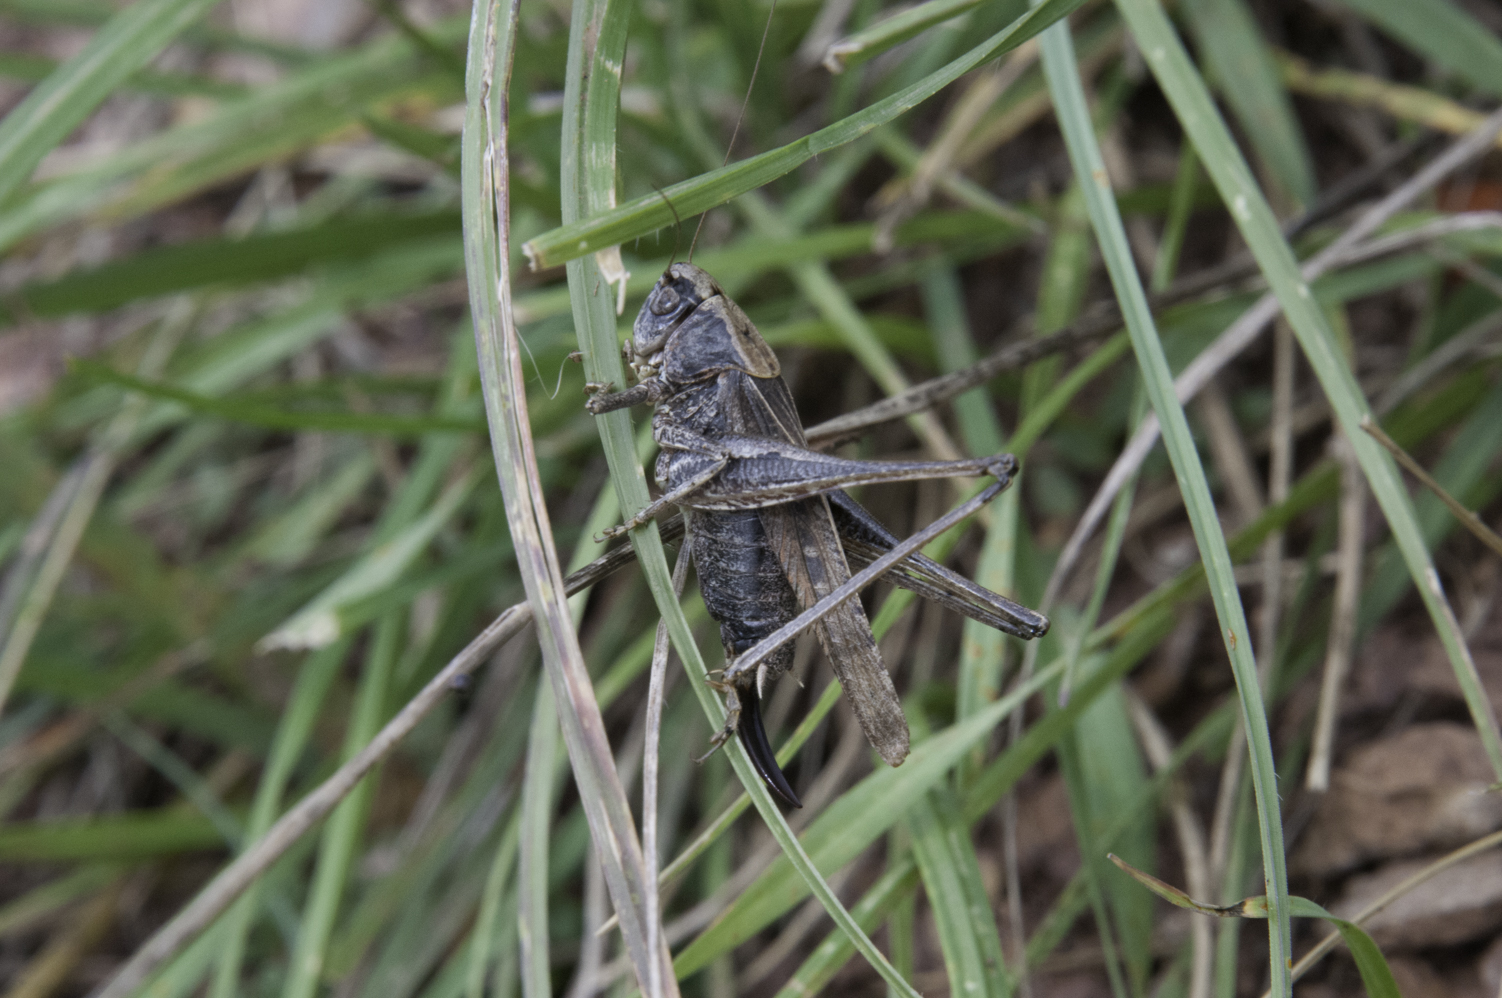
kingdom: Animalia
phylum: Arthropoda
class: Insecta
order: Orthoptera
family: Tettigoniidae
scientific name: Tettigoniidae
